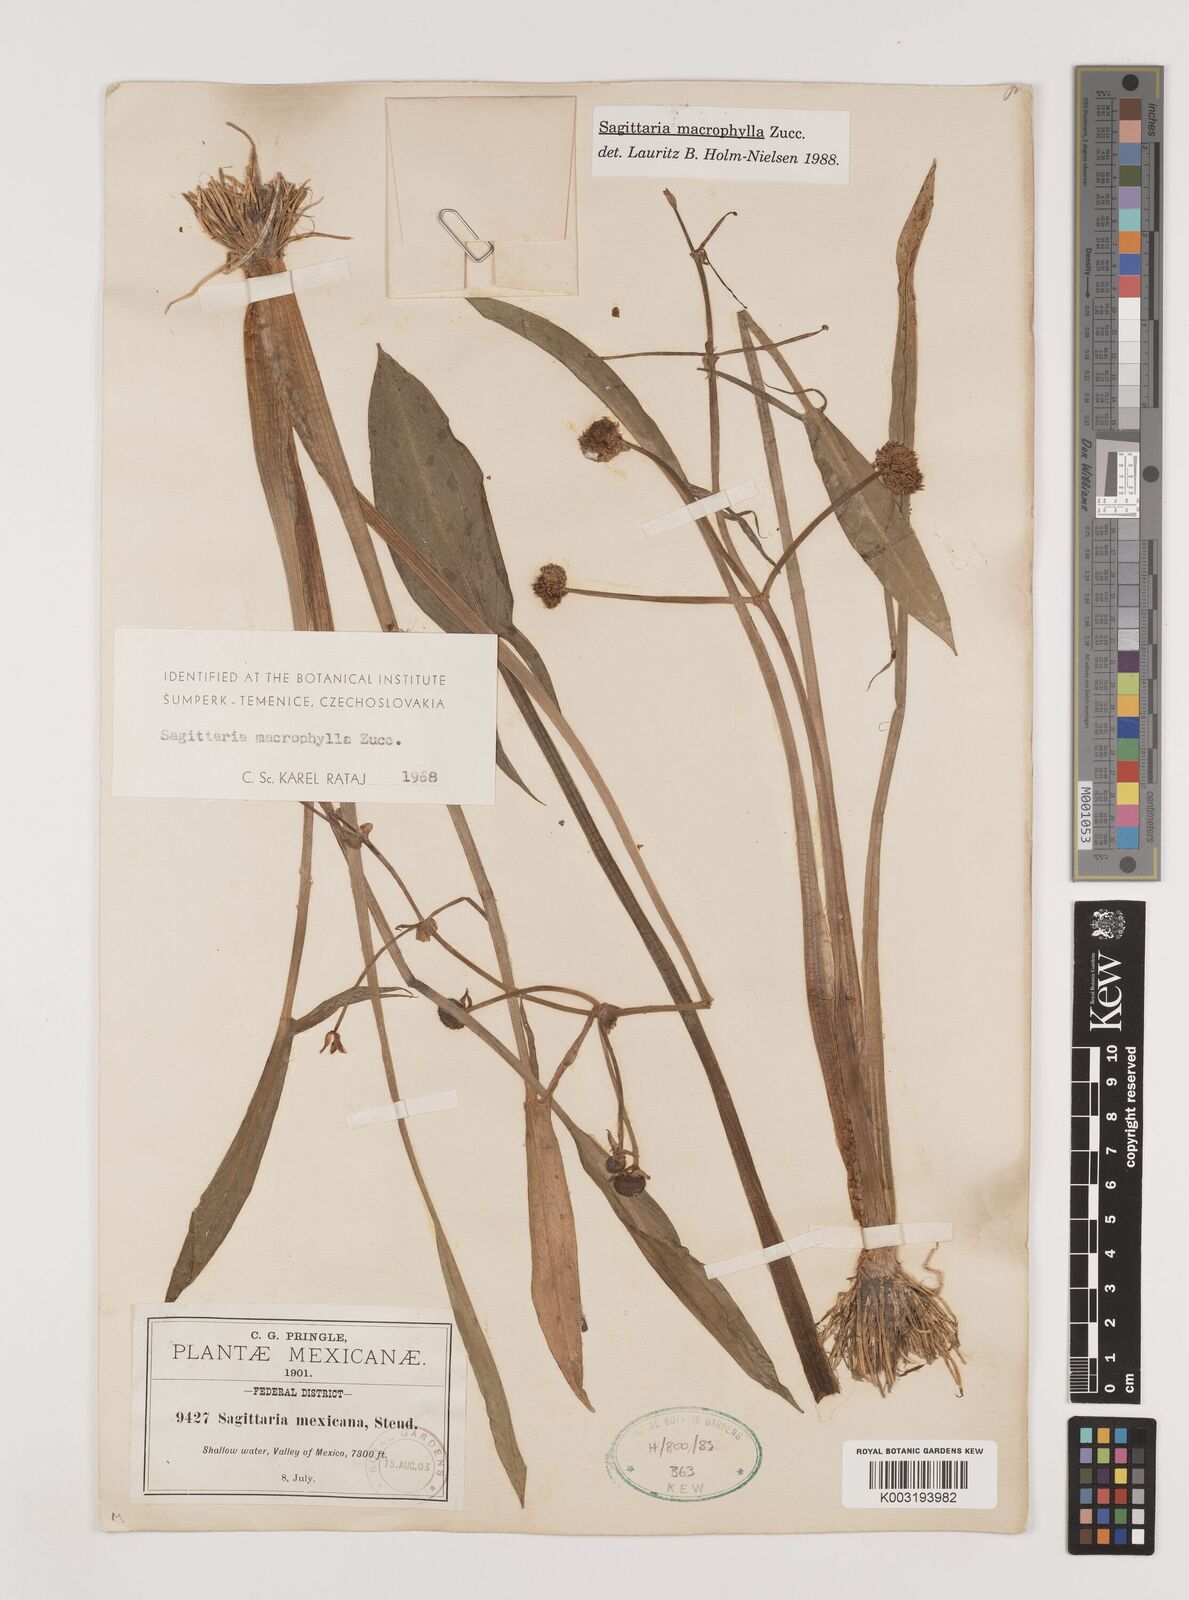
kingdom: Plantae
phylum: Tracheophyta
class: Liliopsida
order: Alismatales
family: Alismataceae
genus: Sagittaria
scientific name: Sagittaria macrophylla
